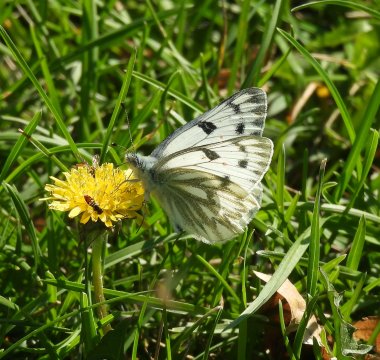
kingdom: Animalia
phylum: Arthropoda
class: Insecta
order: Lepidoptera
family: Pieridae
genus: Pontia
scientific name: Pontia occidentalis
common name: Western White
